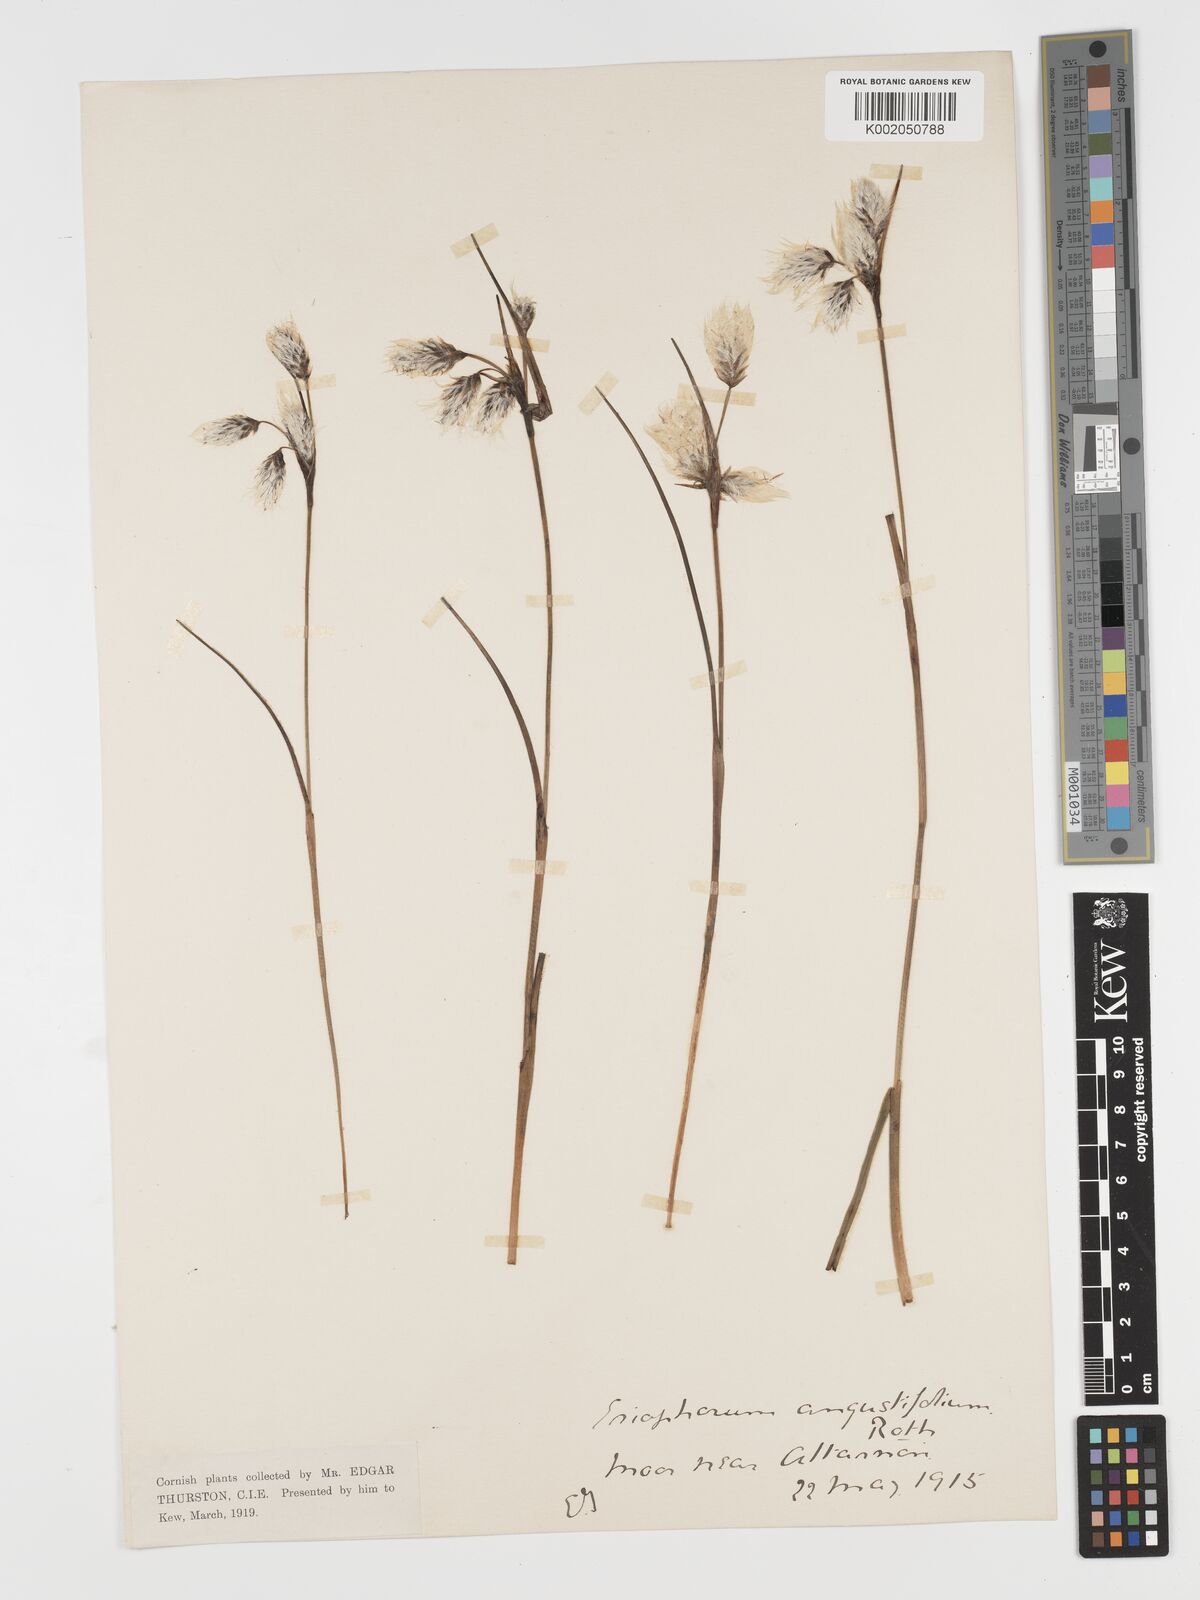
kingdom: Plantae
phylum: Tracheophyta
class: Liliopsida
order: Poales
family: Cyperaceae
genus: Eriophorum
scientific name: Eriophorum angustifolium
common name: Common cottongrass
